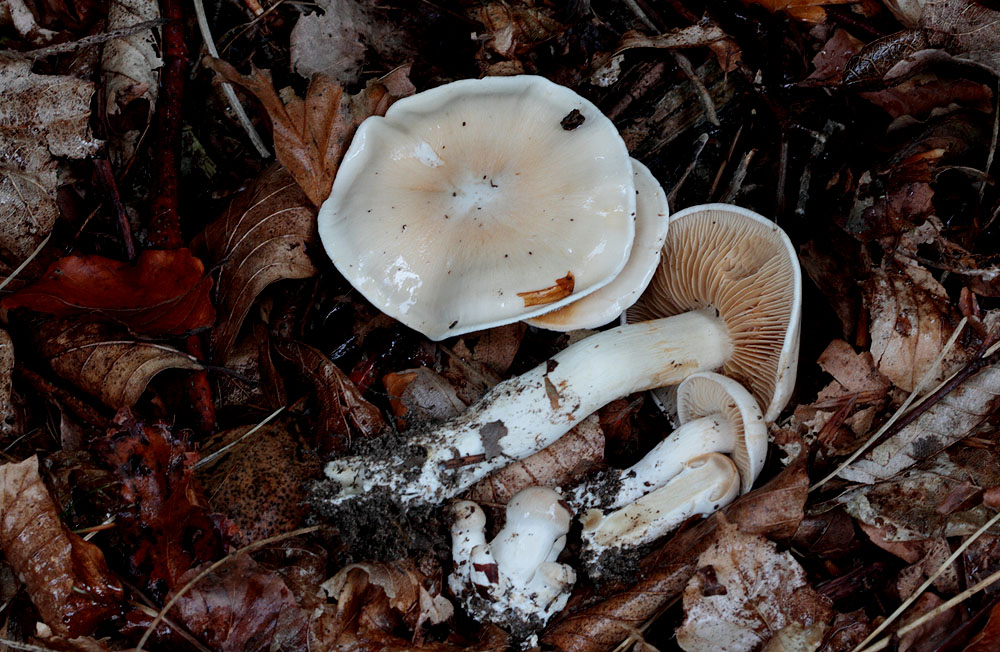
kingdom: Fungi
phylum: Basidiomycota
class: Agaricomycetes
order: Agaricales
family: Cortinariaceae
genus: Thaxterogaster
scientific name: Thaxterogaster leucoluteolus
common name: isabella slørhat
